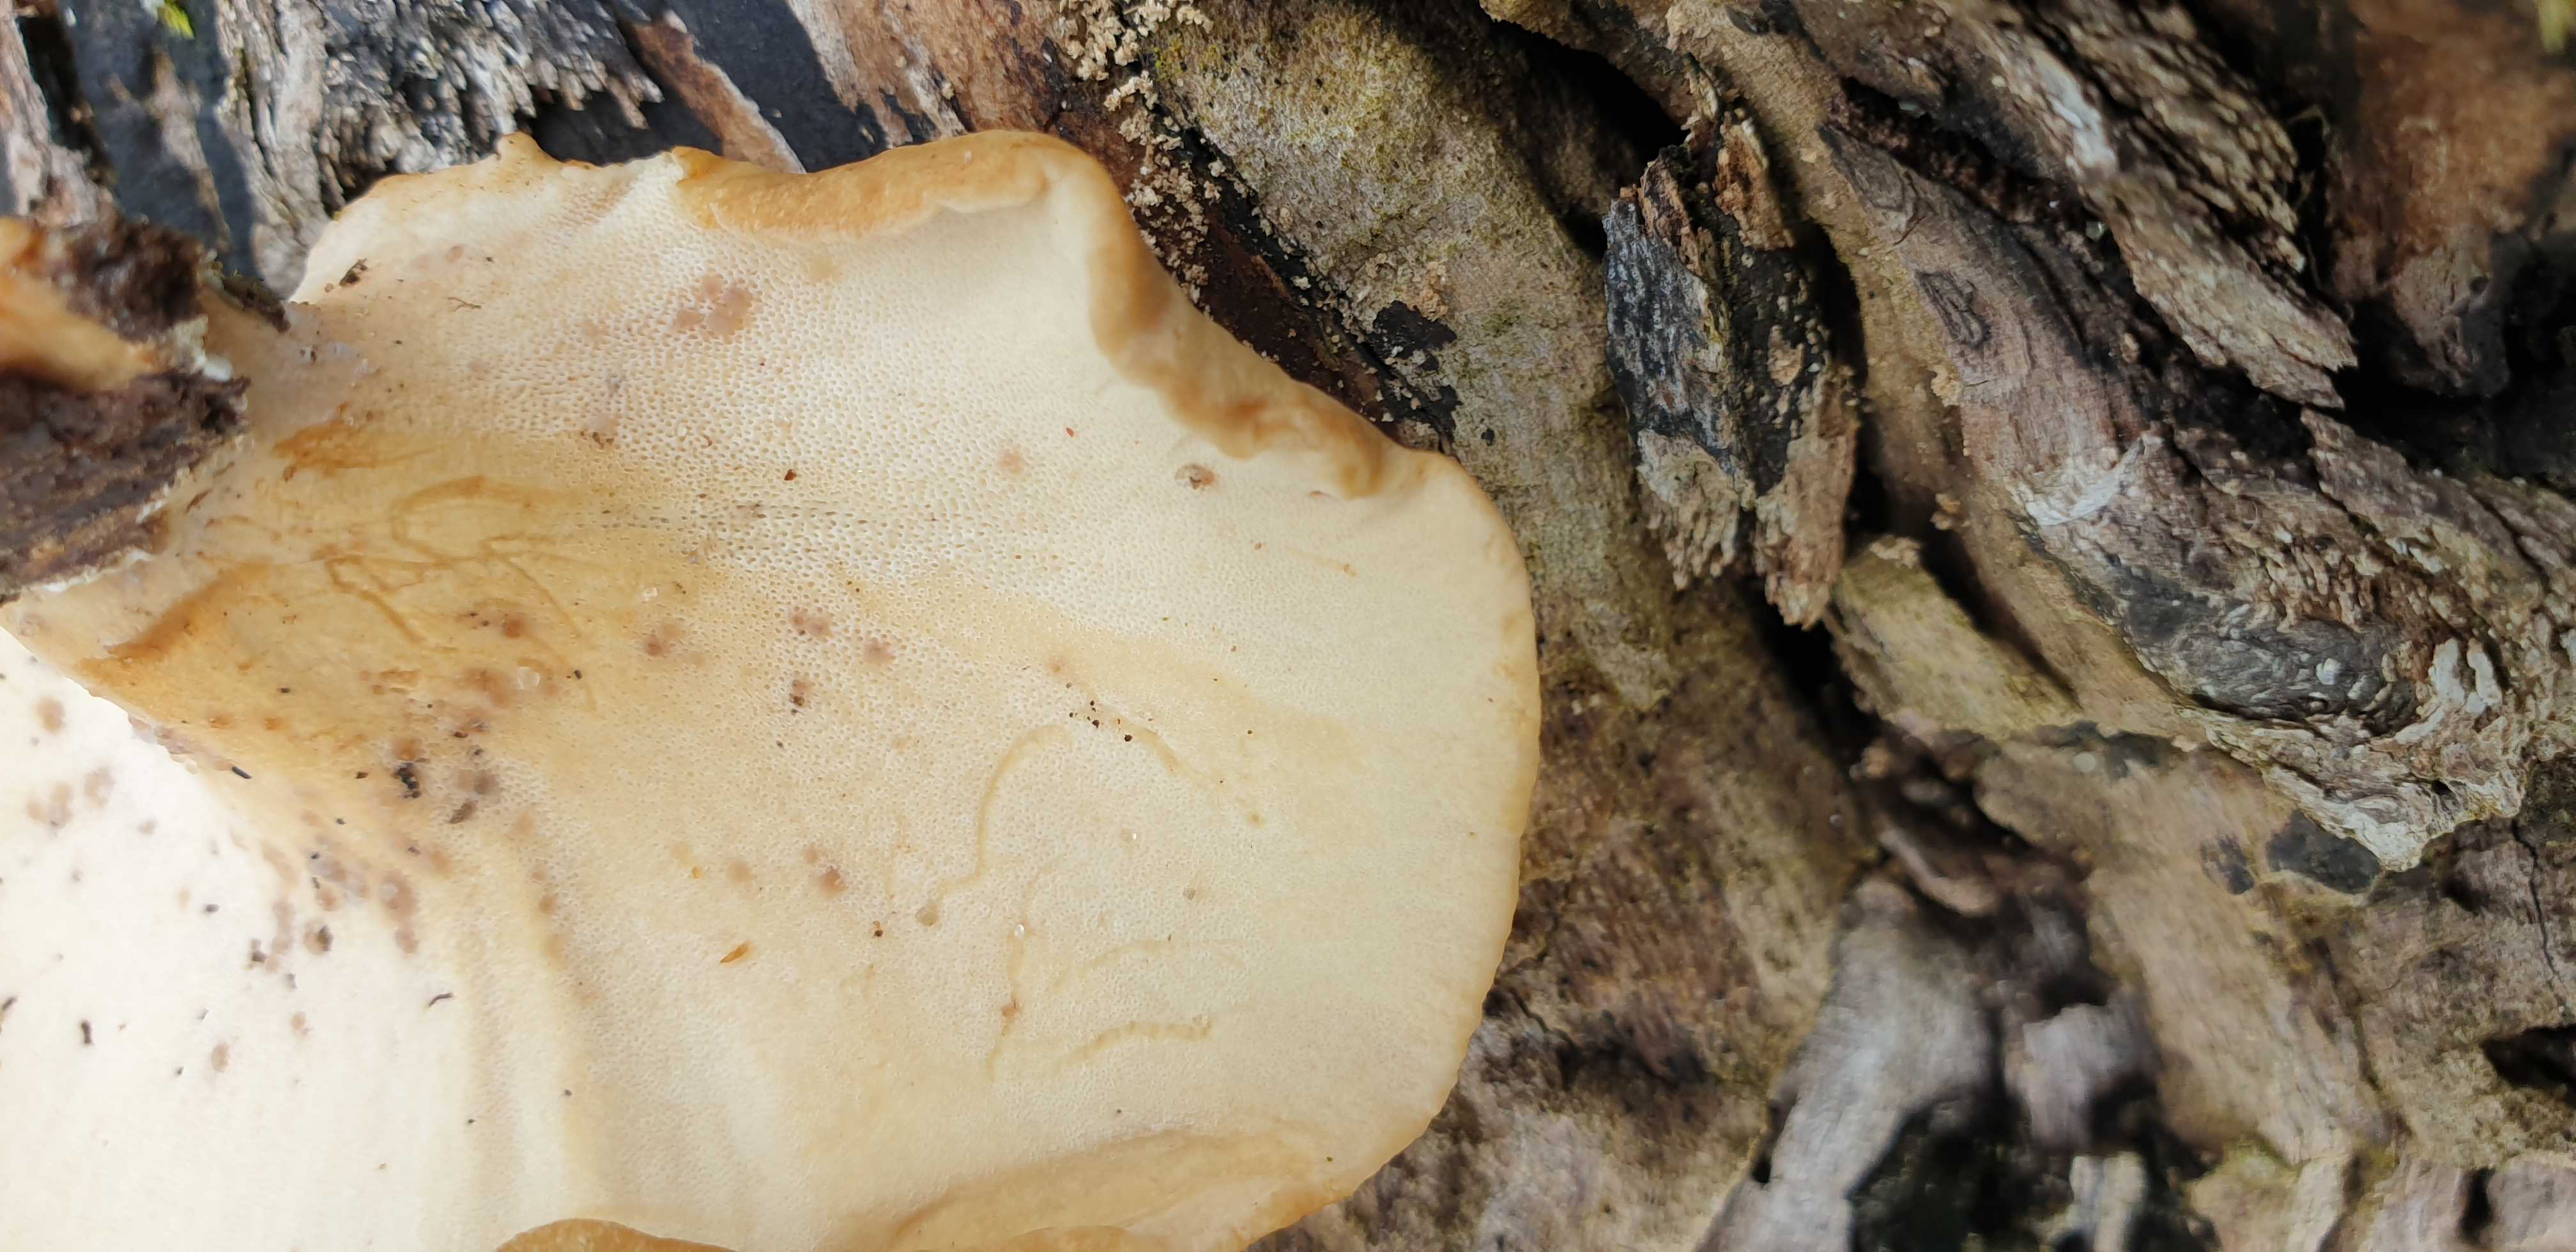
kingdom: Fungi
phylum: Basidiomycota
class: Agaricomycetes
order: Polyporales
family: Polyporaceae
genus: Cerioporus
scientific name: Cerioporus varius
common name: foranderlig stilkporesvamp
